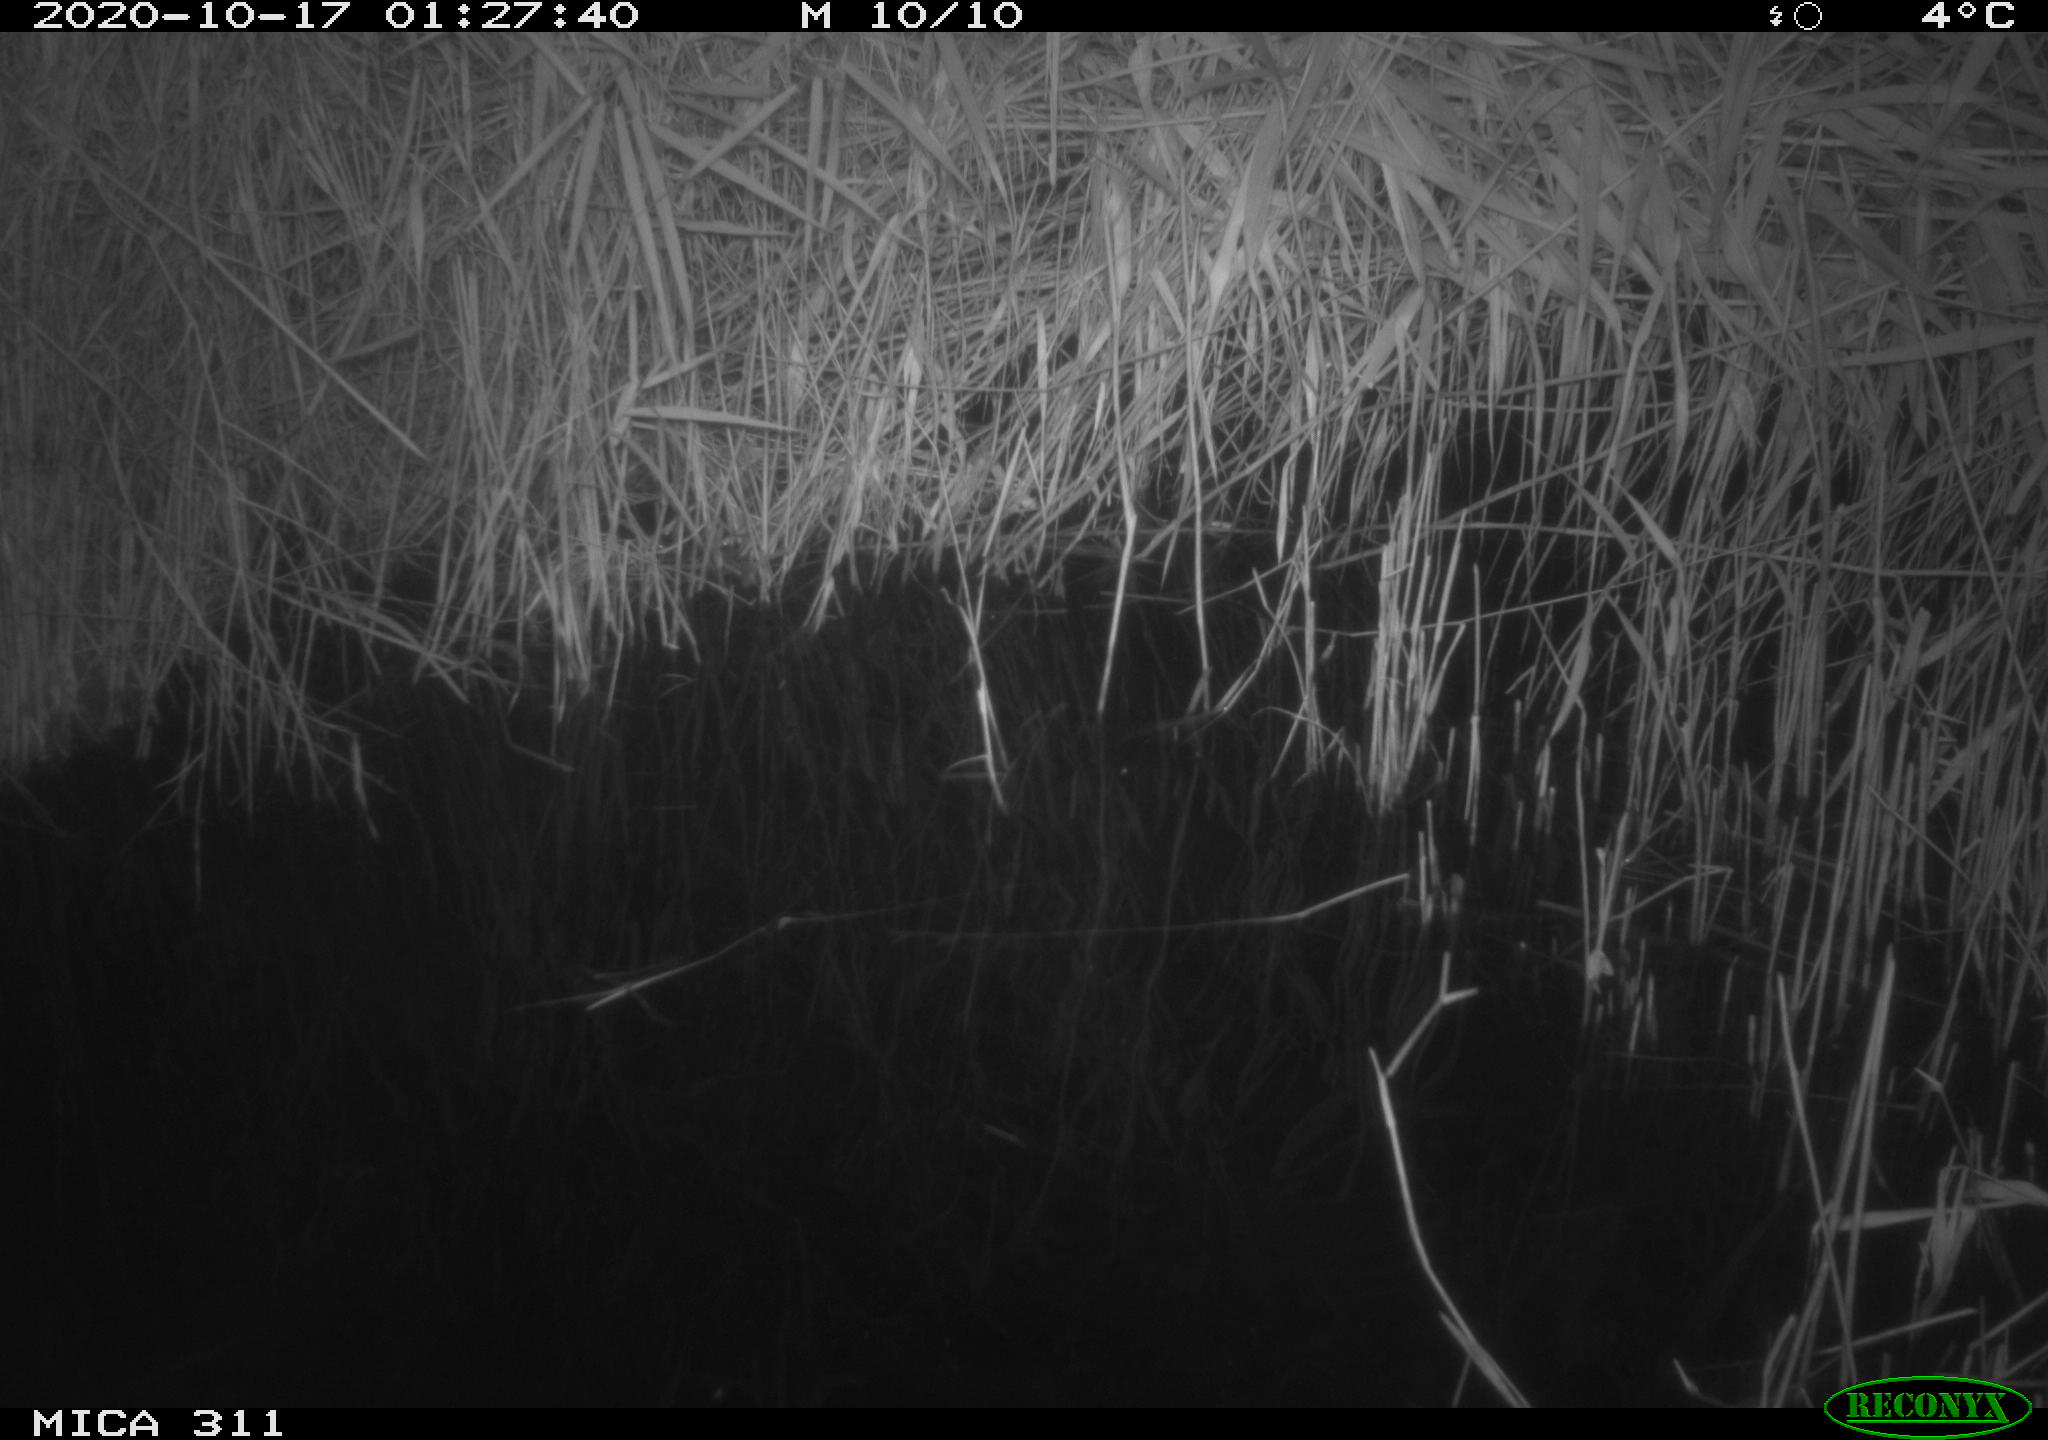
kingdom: Animalia
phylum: Chordata
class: Mammalia
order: Rodentia
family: Muridae
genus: Rattus
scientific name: Rattus norvegicus
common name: Brown rat
